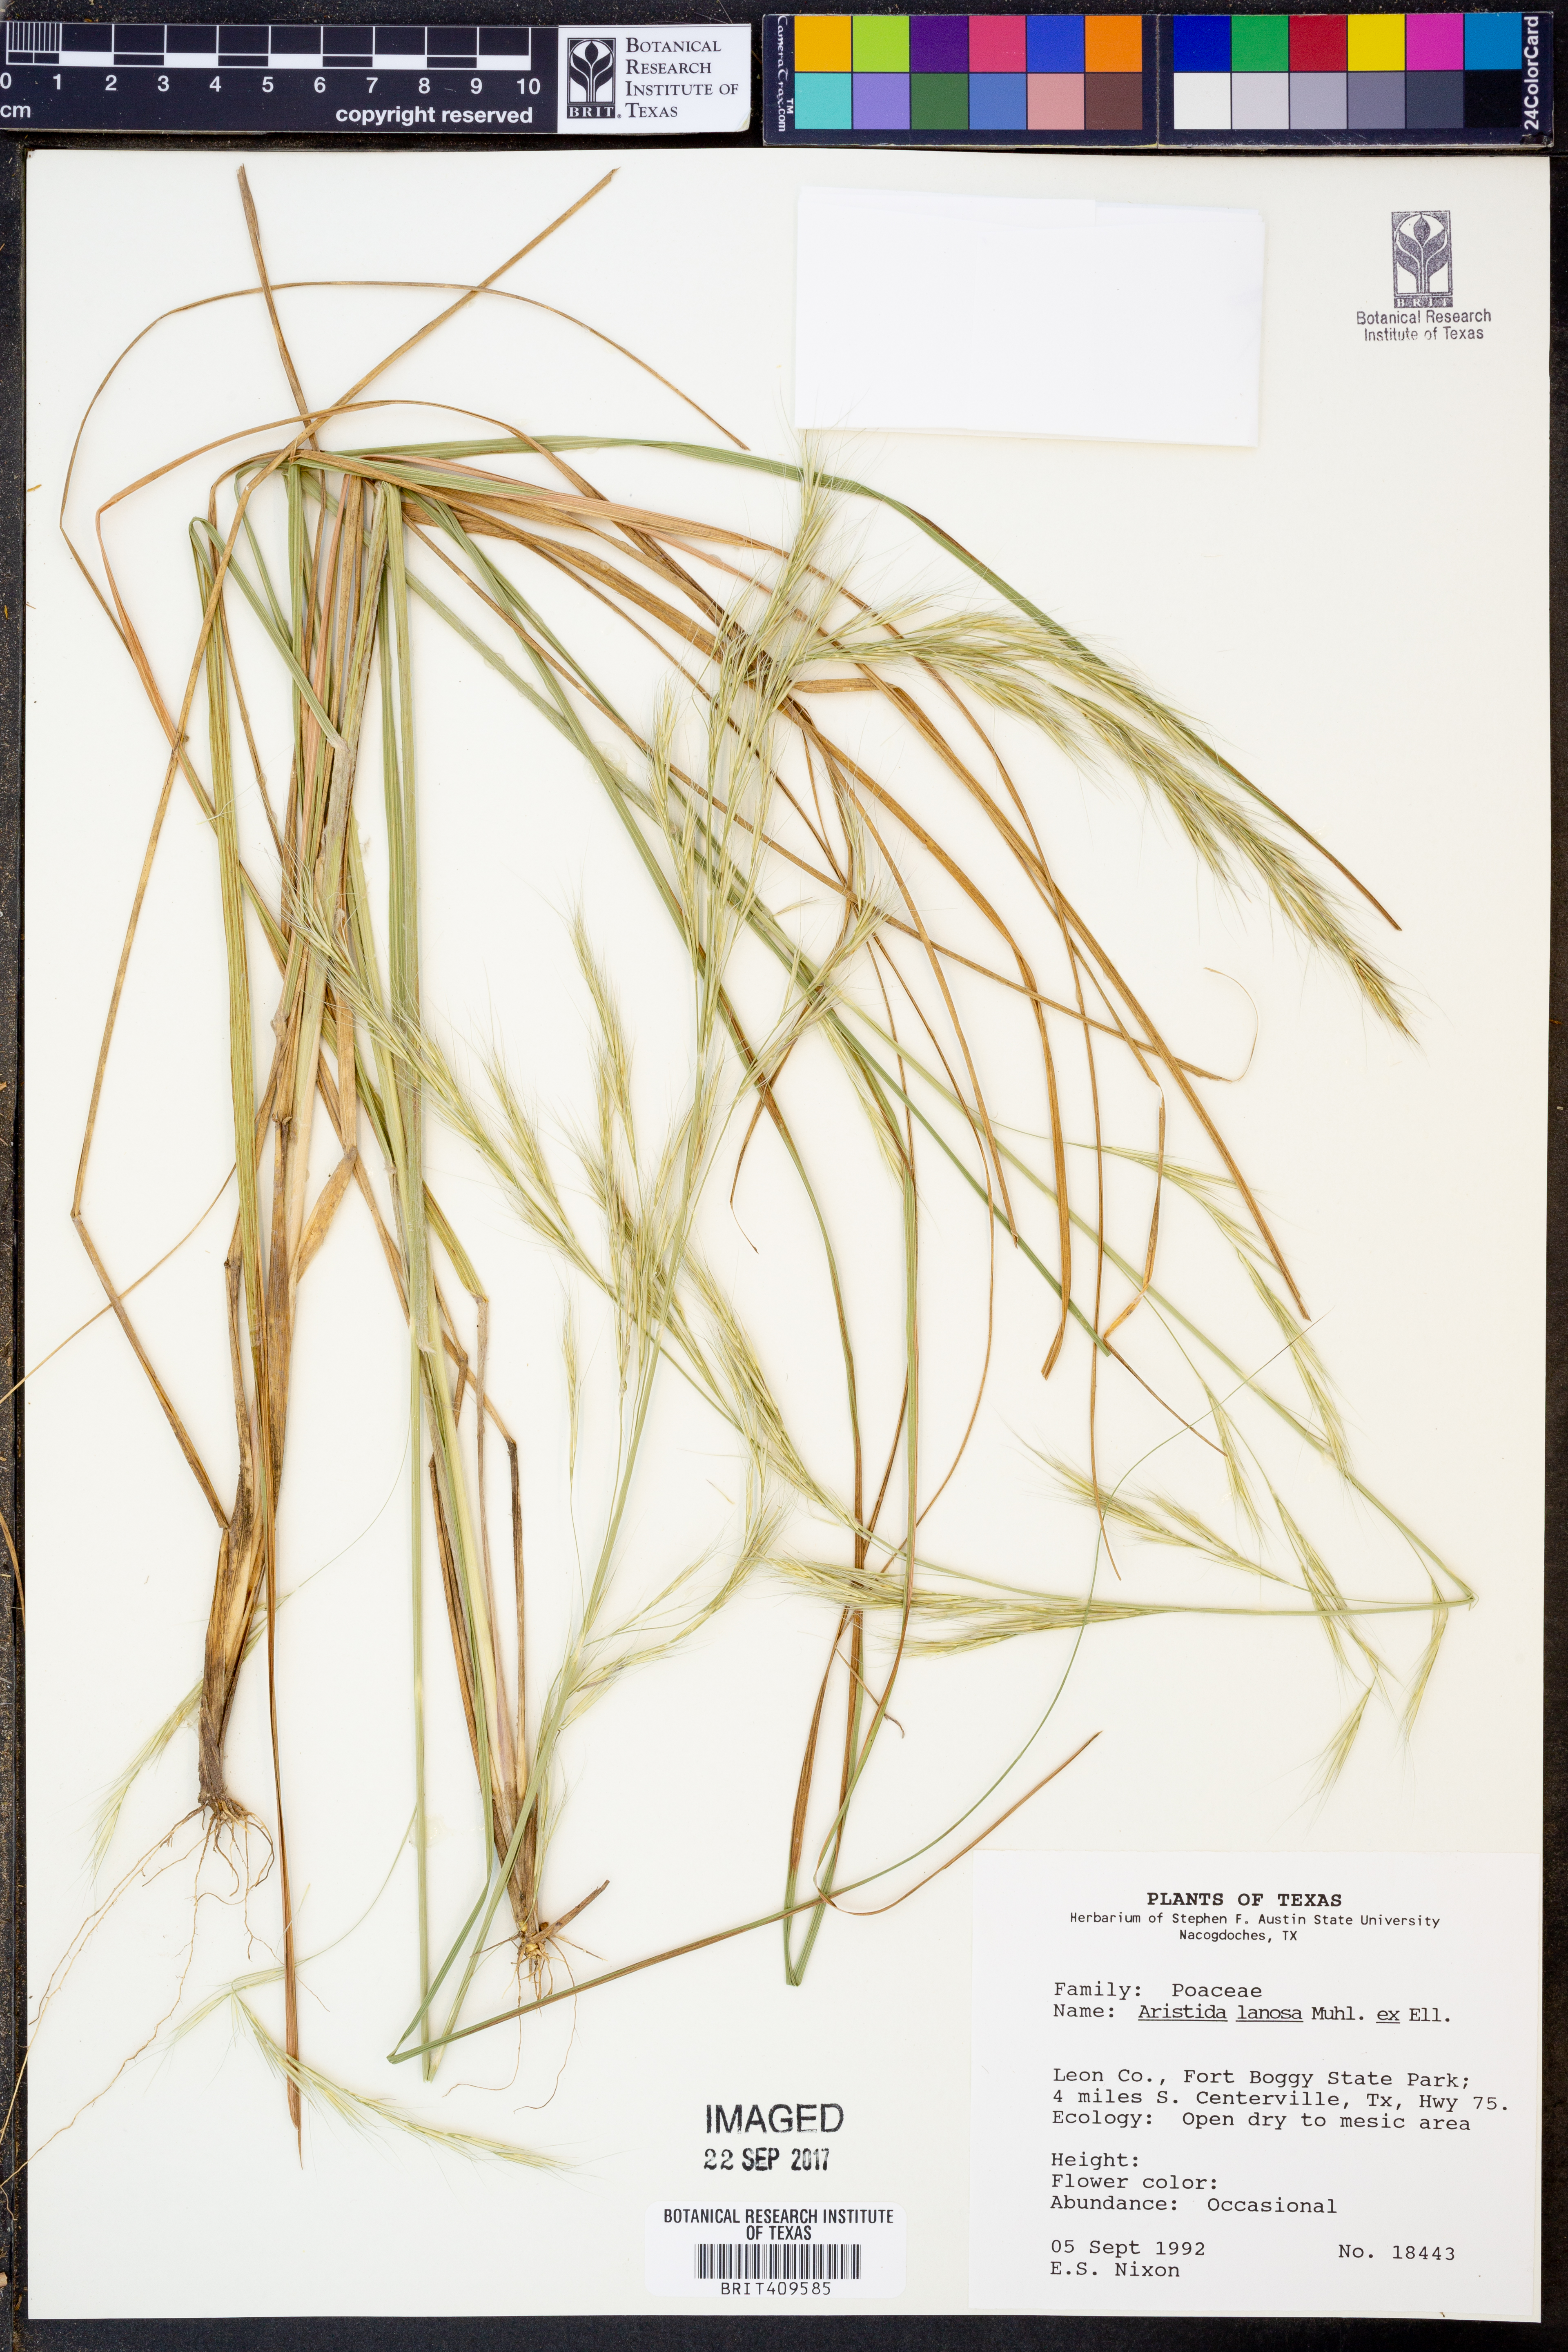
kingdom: Plantae
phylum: Tracheophyta
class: Liliopsida
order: Poales
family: Poaceae
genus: Aristida
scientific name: Aristida lanosa
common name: Woolly three-awn
